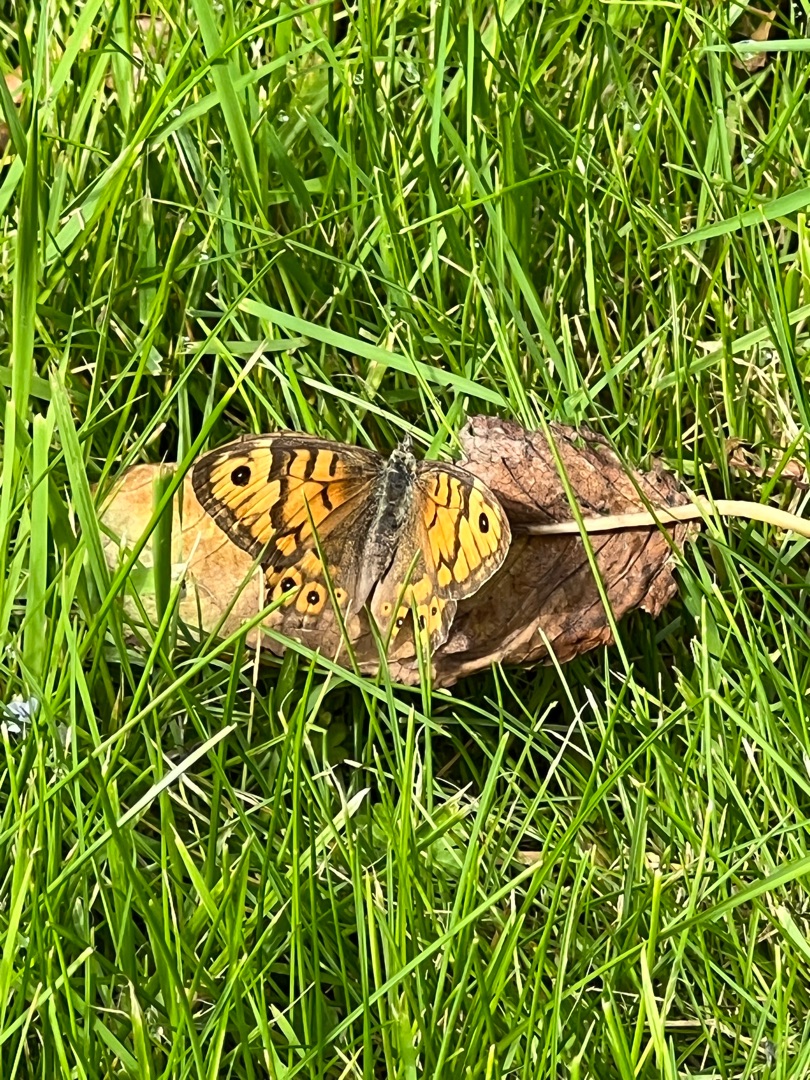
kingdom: Animalia
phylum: Arthropoda
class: Insecta
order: Lepidoptera
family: Nymphalidae
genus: Pararge
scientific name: Pararge Lasiommata megera
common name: Vejrandøje
